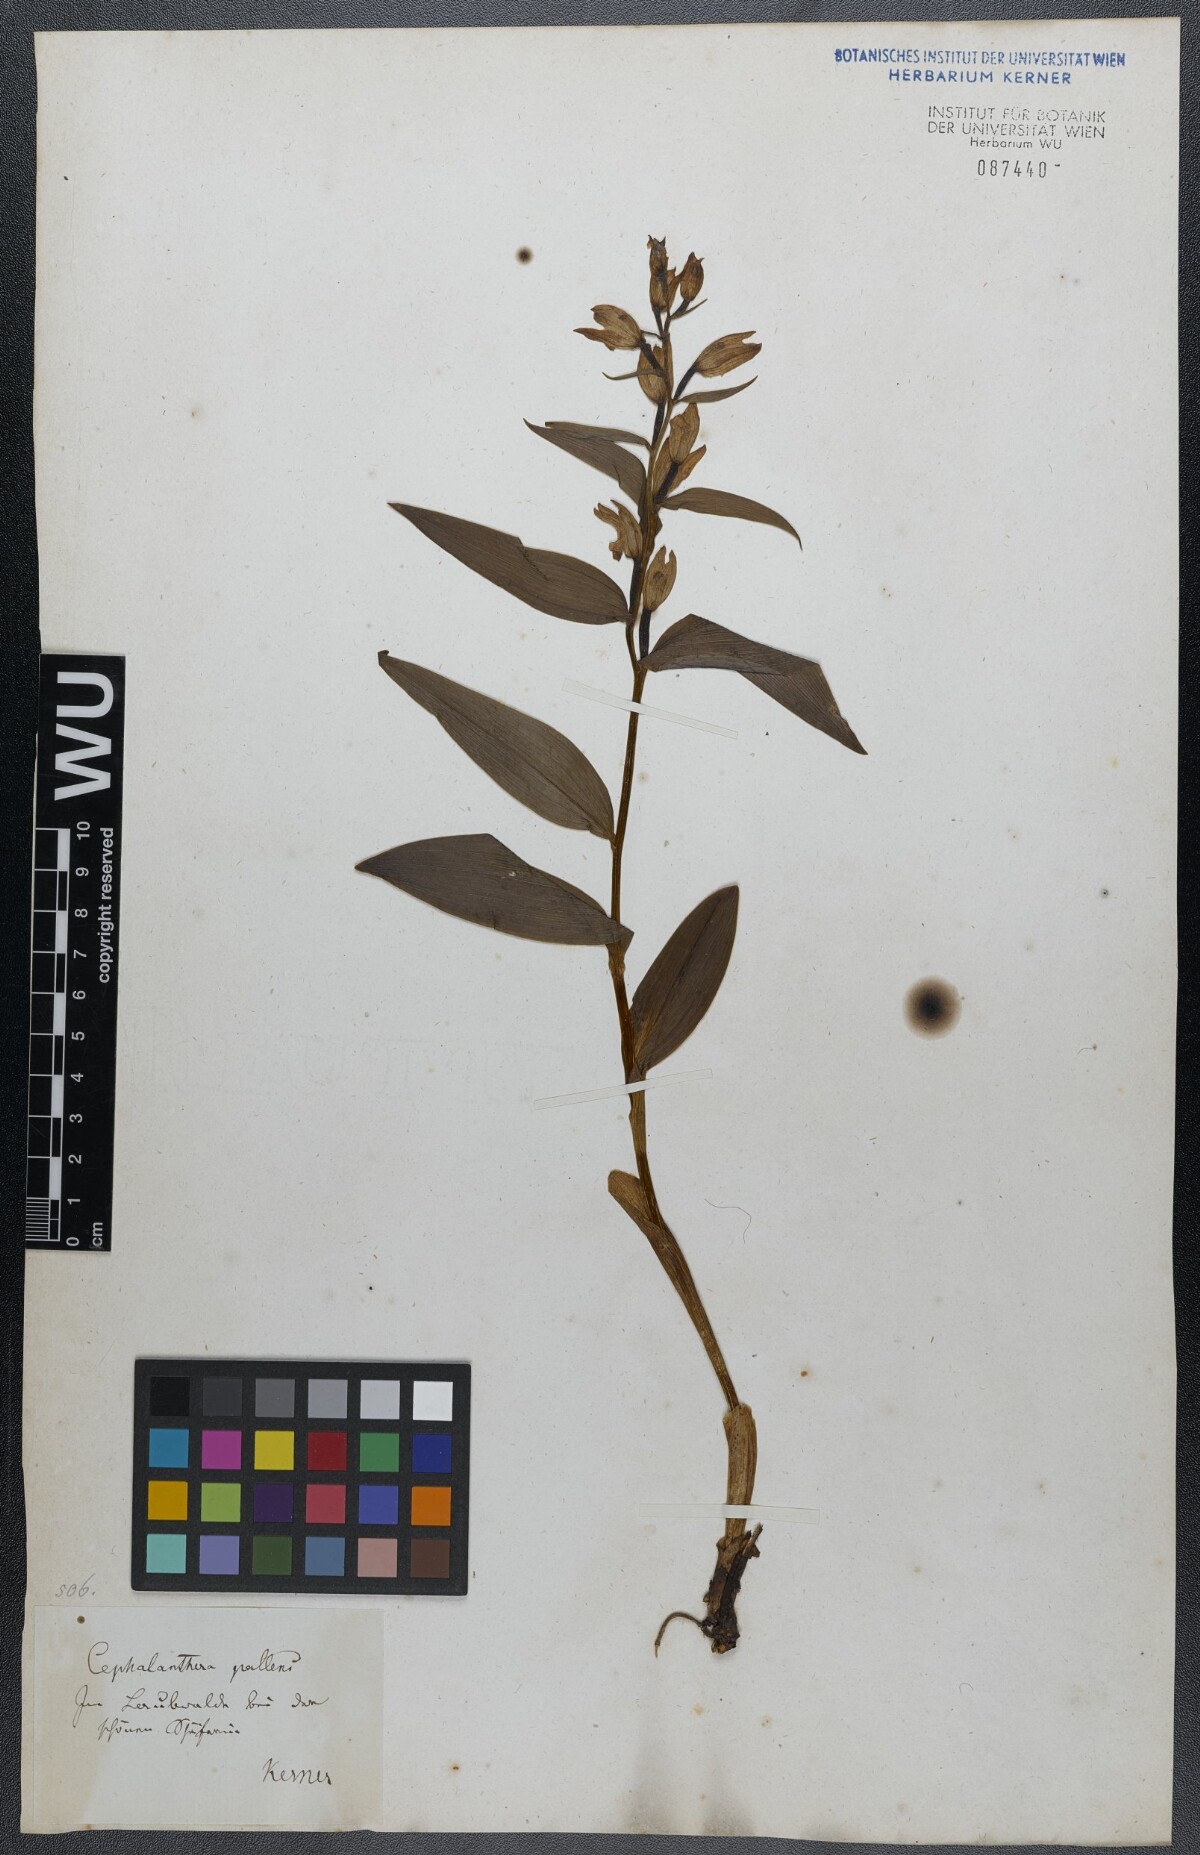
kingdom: Plantae
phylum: Tracheophyta
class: Liliopsida
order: Asparagales
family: Orchidaceae
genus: Cephalanthera
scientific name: Cephalanthera longifolia
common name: Narrow-leaved helleborine
